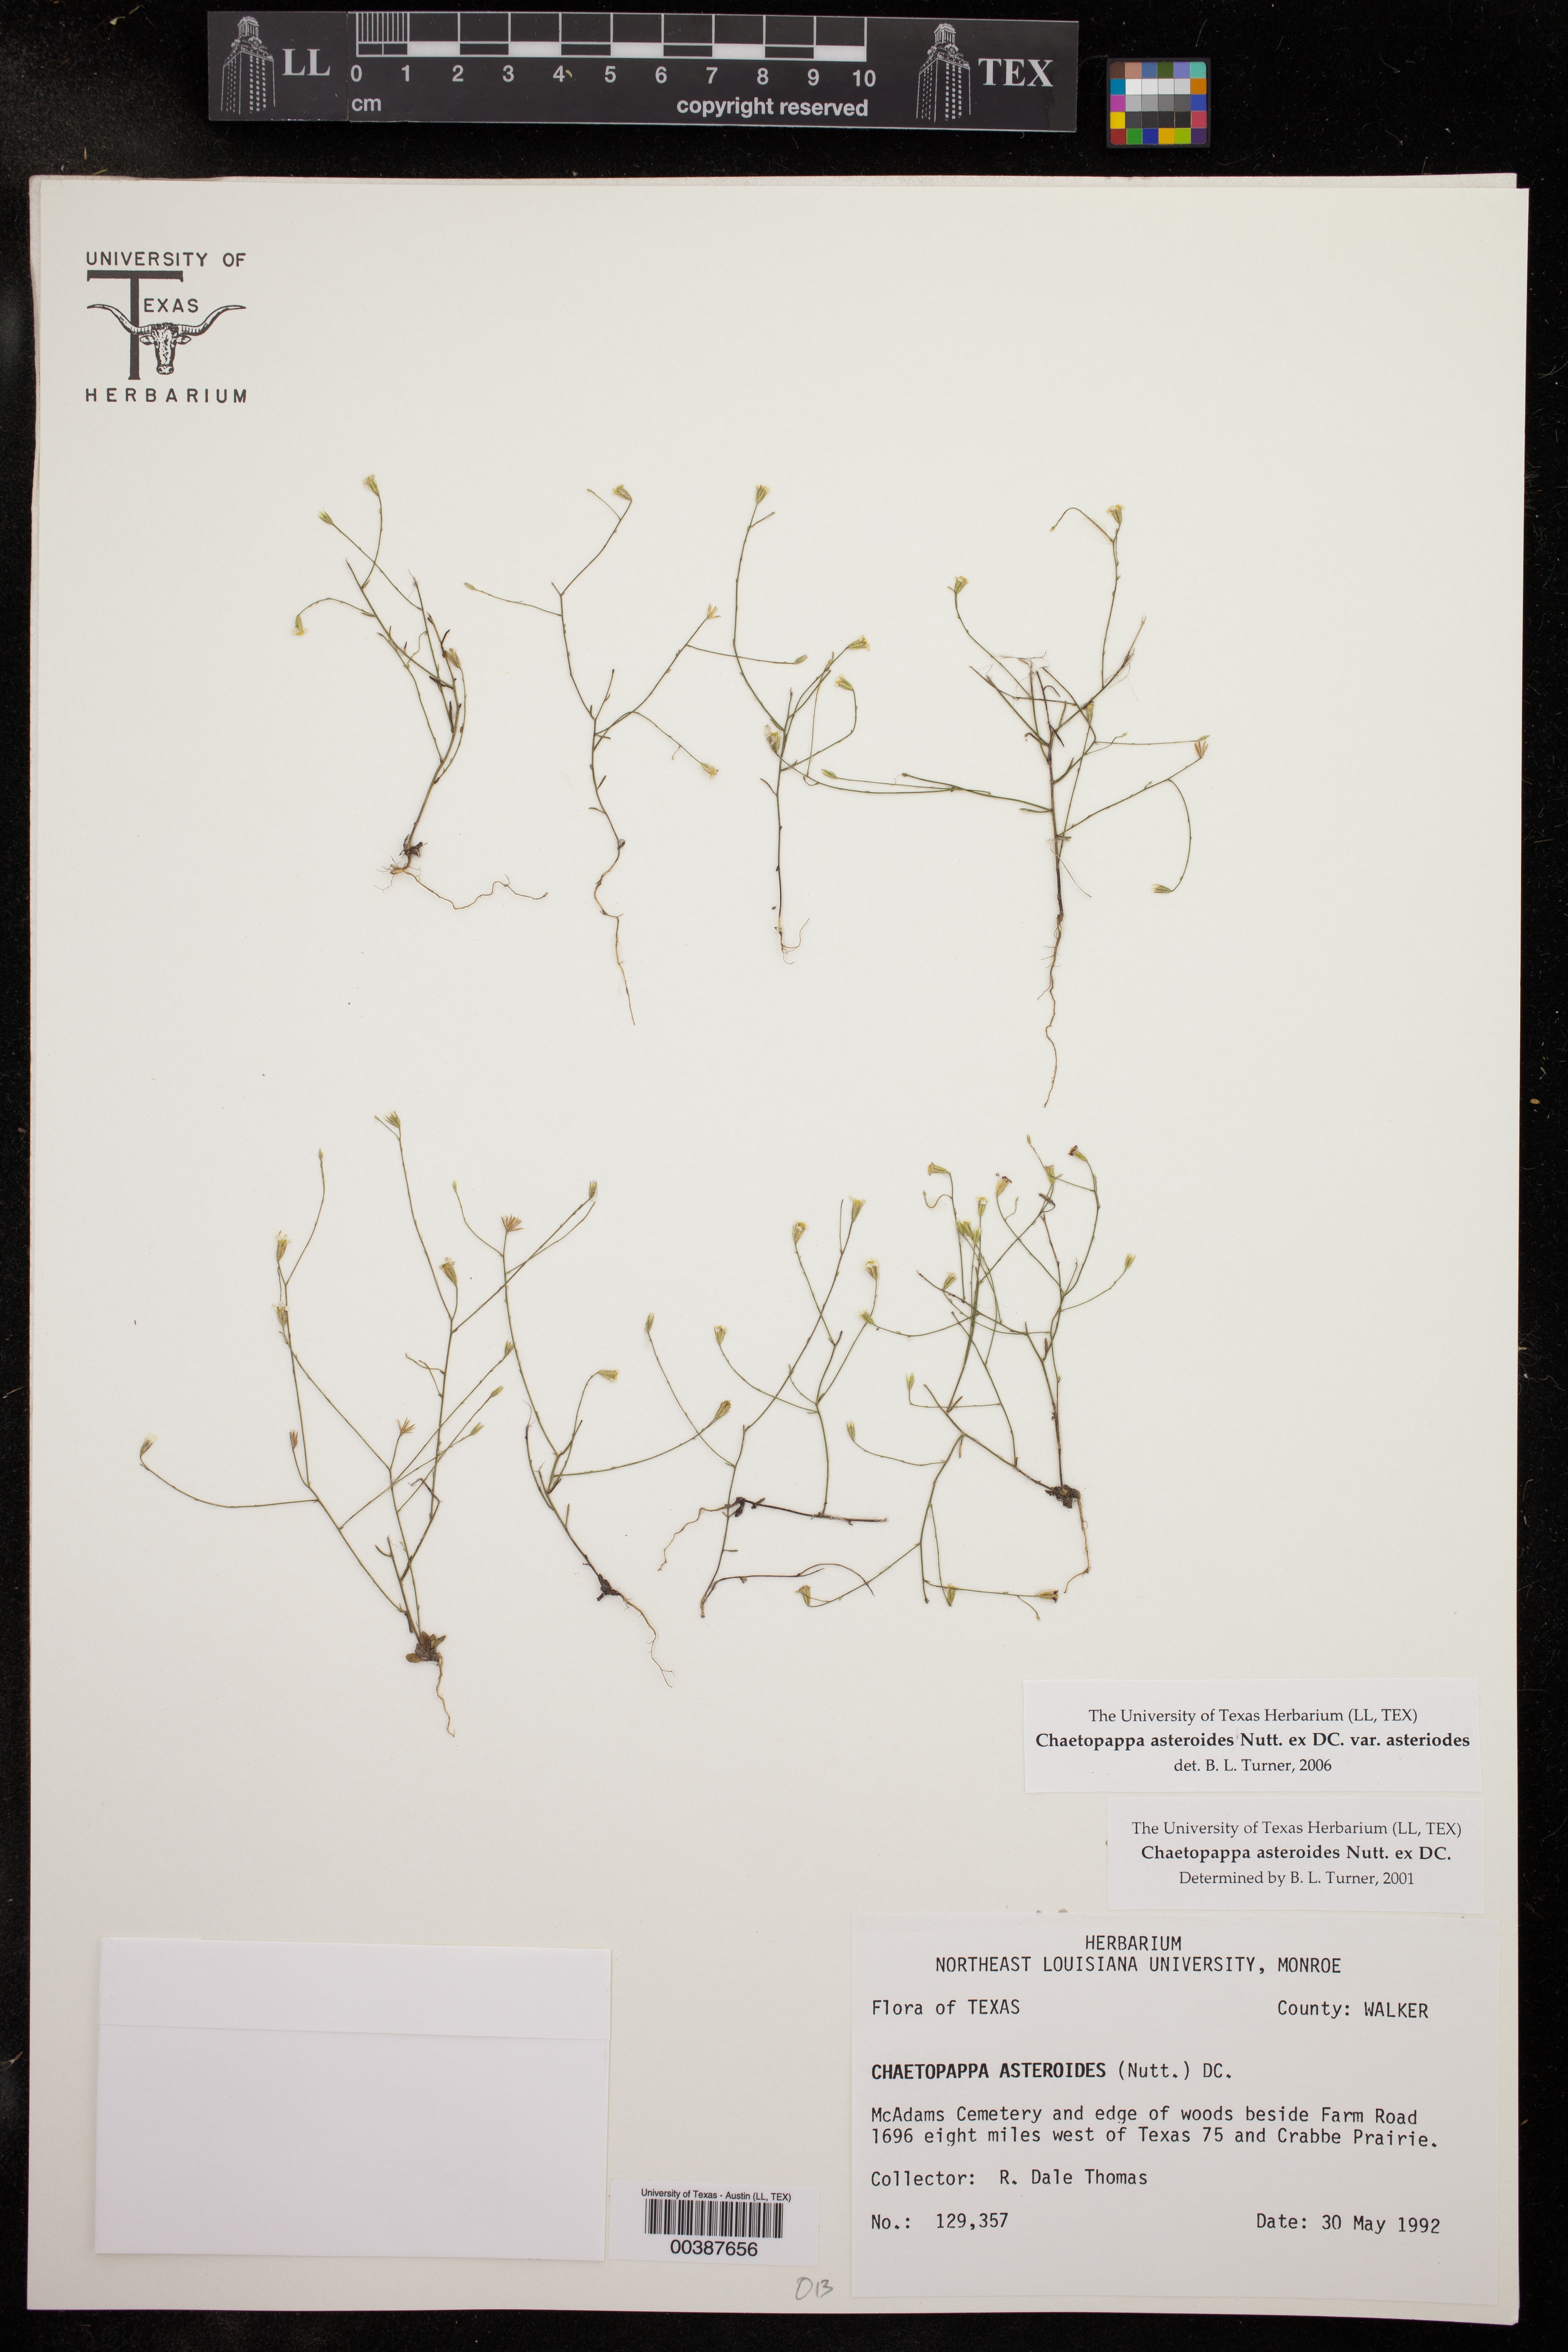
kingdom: Plantae
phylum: Tracheophyta
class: Magnoliopsida
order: Asterales
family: Asteraceae
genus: Chaetopappa
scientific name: Chaetopappa asteroides
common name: Tiny lazy daisy
